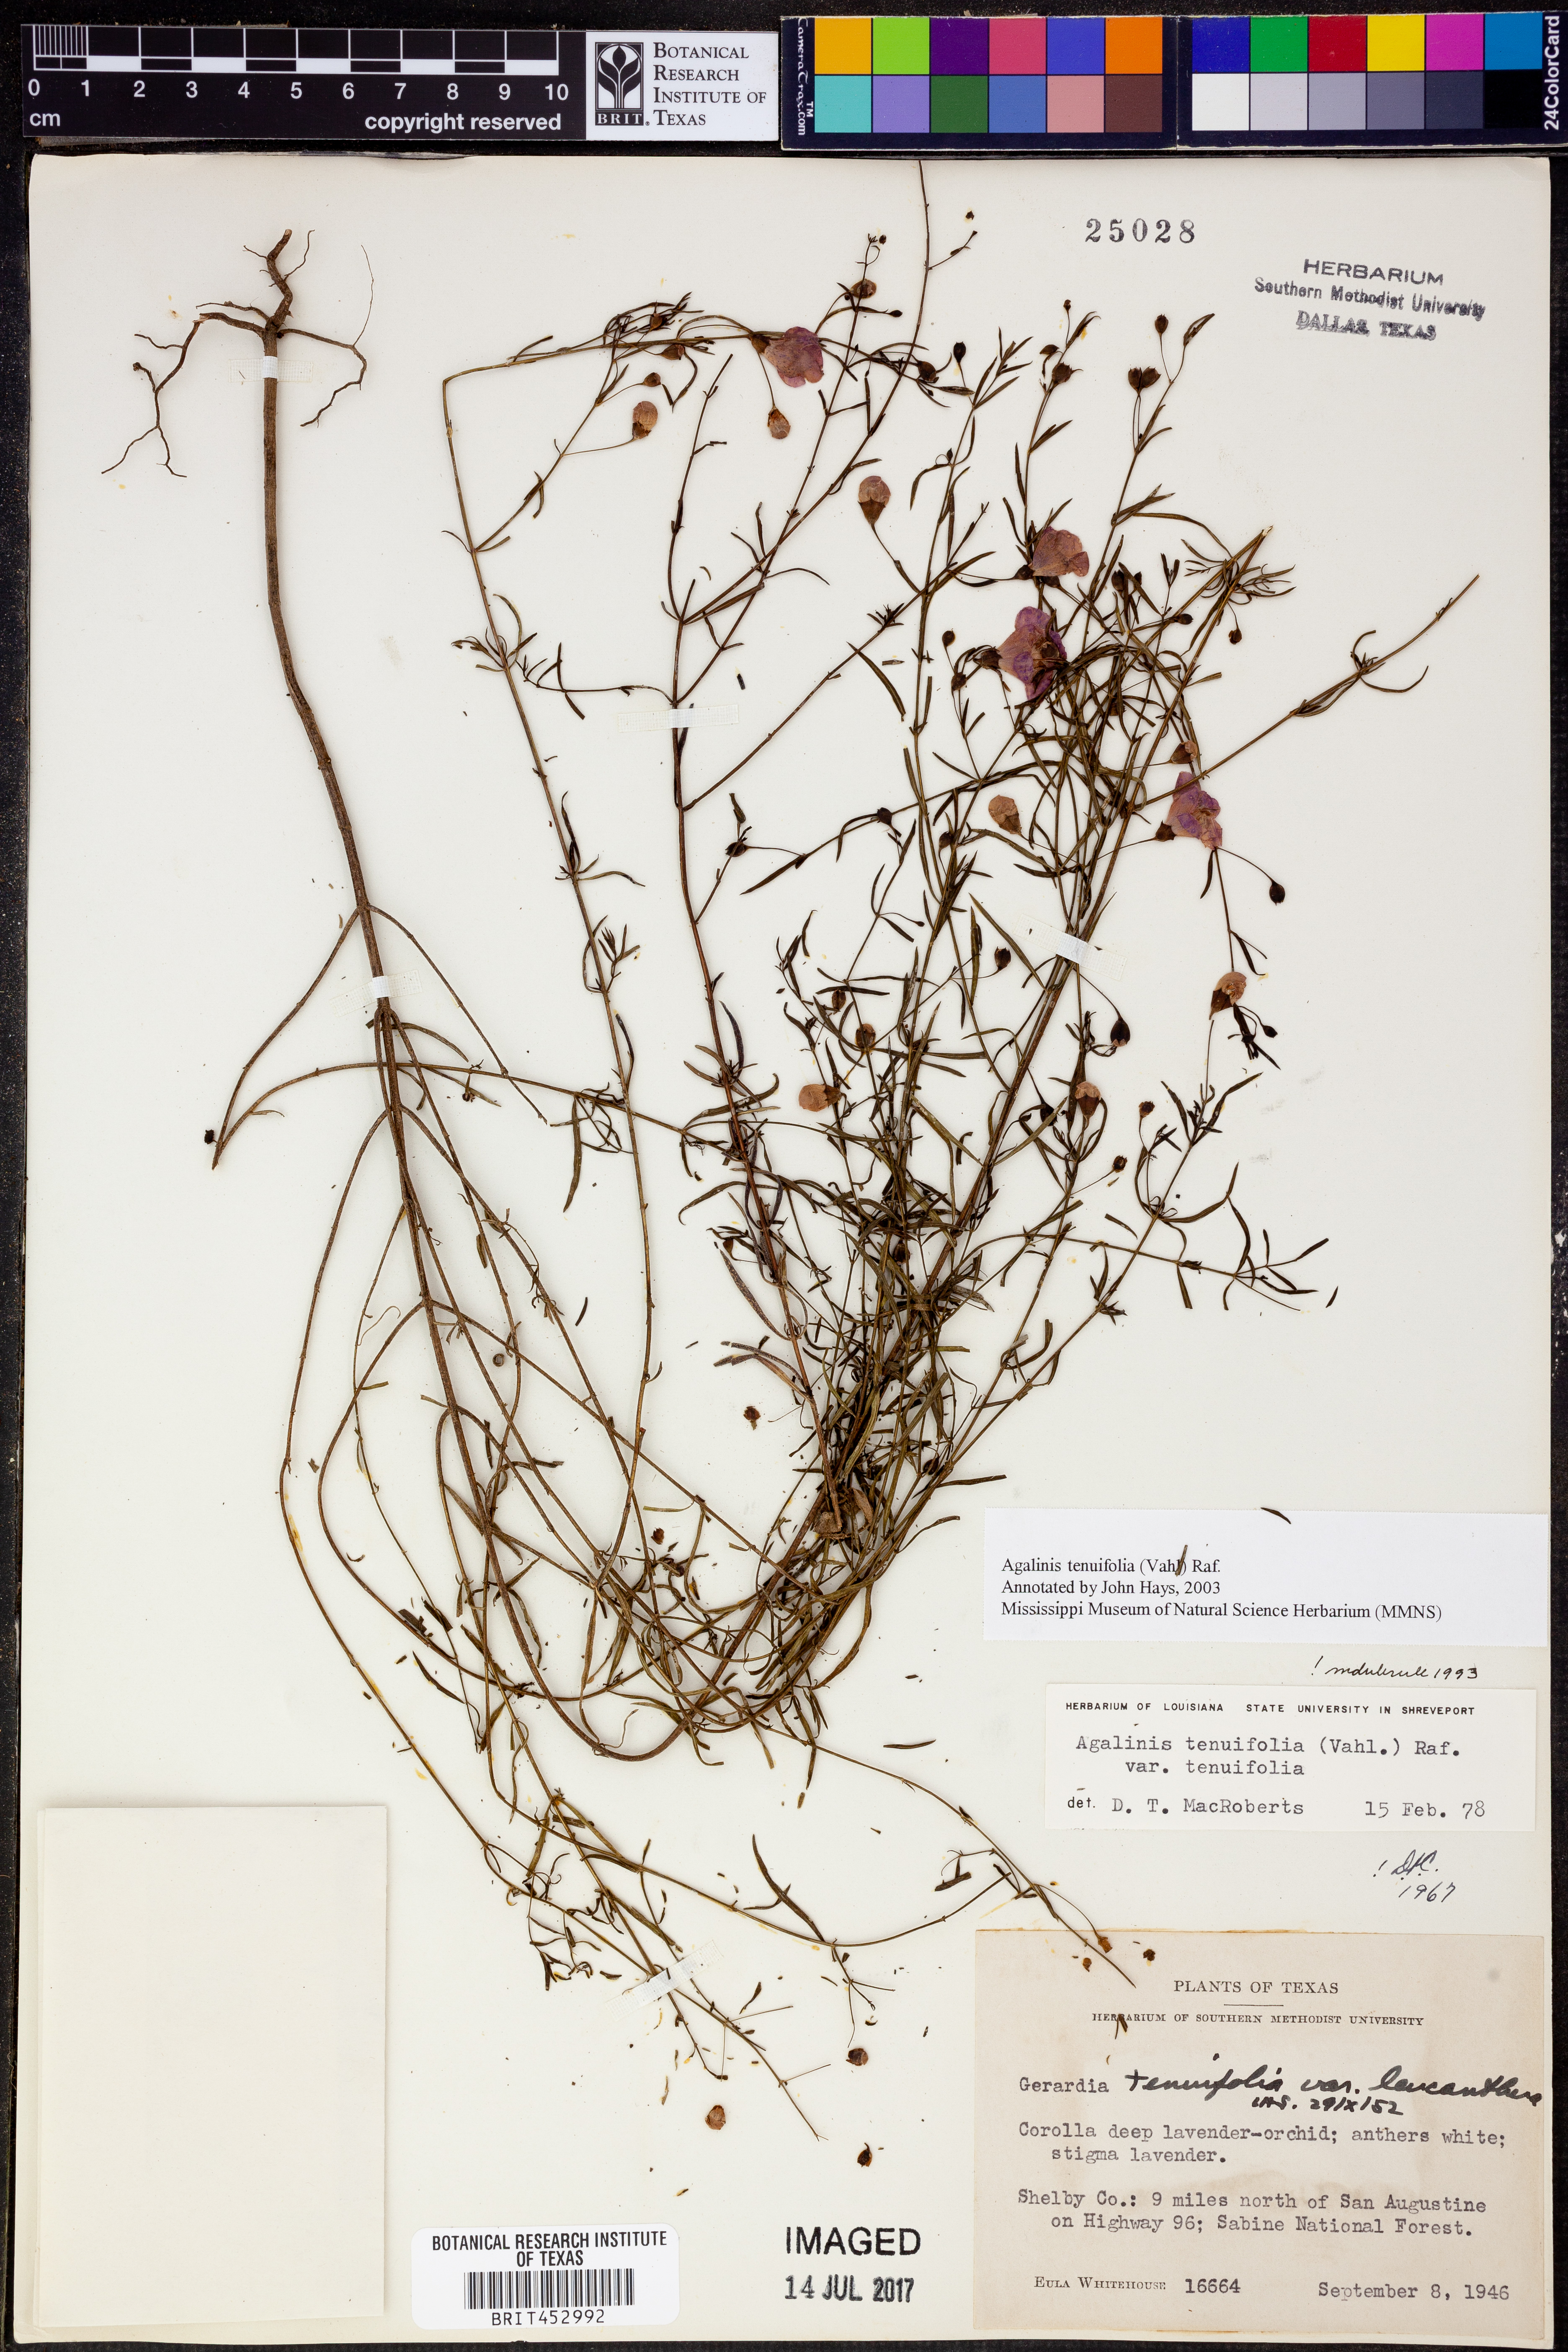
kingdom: Plantae
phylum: Tracheophyta
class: Magnoliopsida
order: Lamiales
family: Orobanchaceae
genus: Agalinis
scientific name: Agalinis tenuifolia
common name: Slender agalinis
